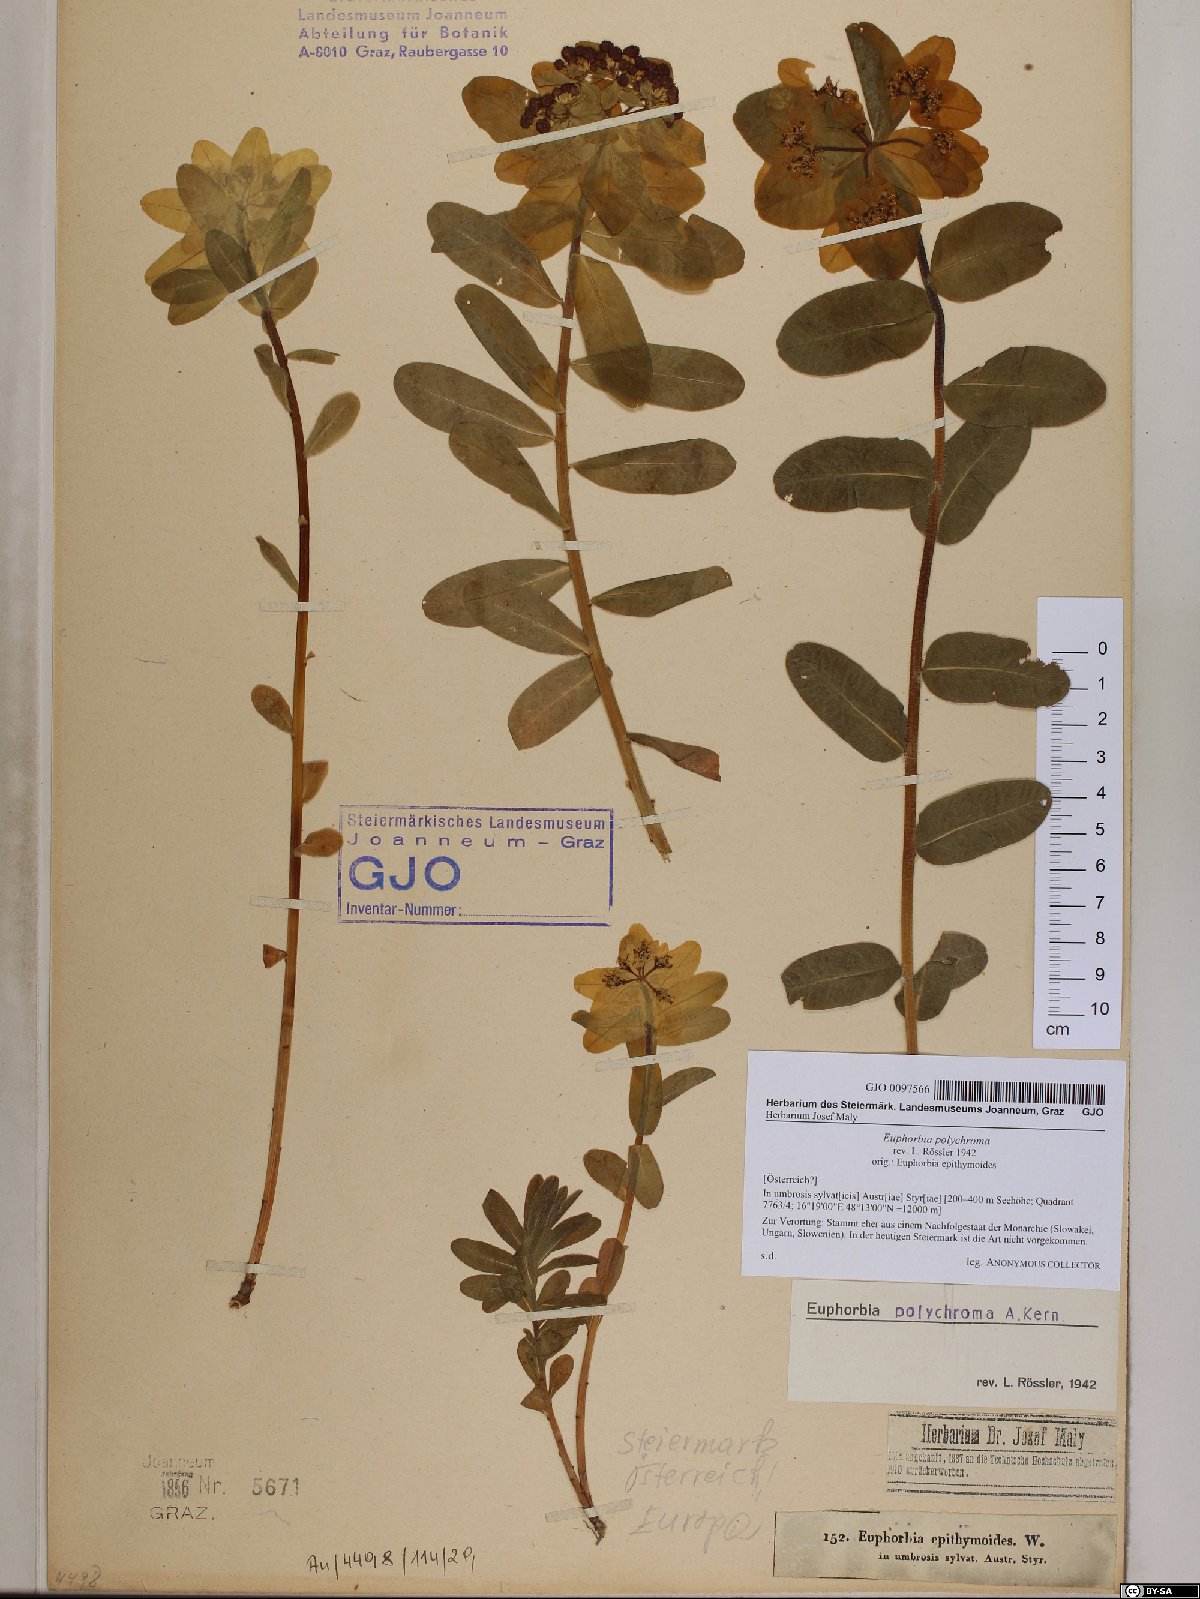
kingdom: Plantae
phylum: Tracheophyta
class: Magnoliopsida
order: Malpighiales
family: Euphorbiaceae
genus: Euphorbia
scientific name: Euphorbia epithymoides
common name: Cushion spurge
